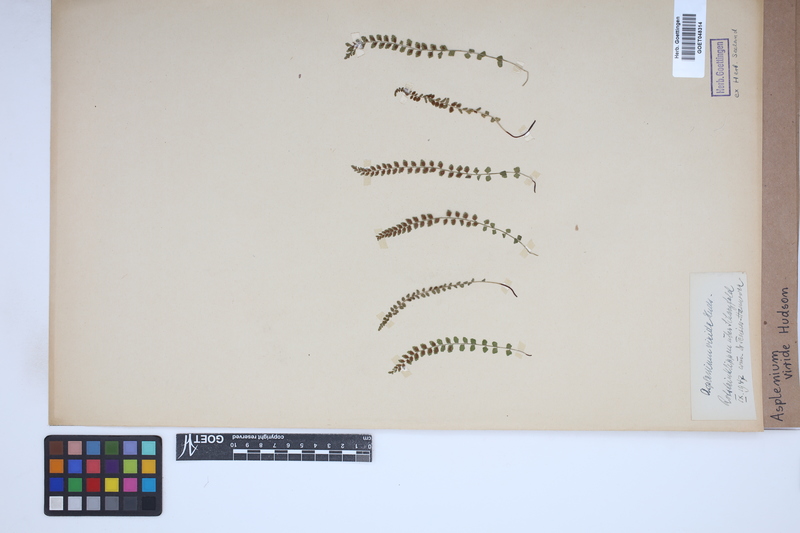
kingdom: Plantae
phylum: Tracheophyta
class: Polypodiopsida
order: Polypodiales
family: Aspleniaceae
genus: Asplenium
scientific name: Asplenium viride
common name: Green spleenwort
